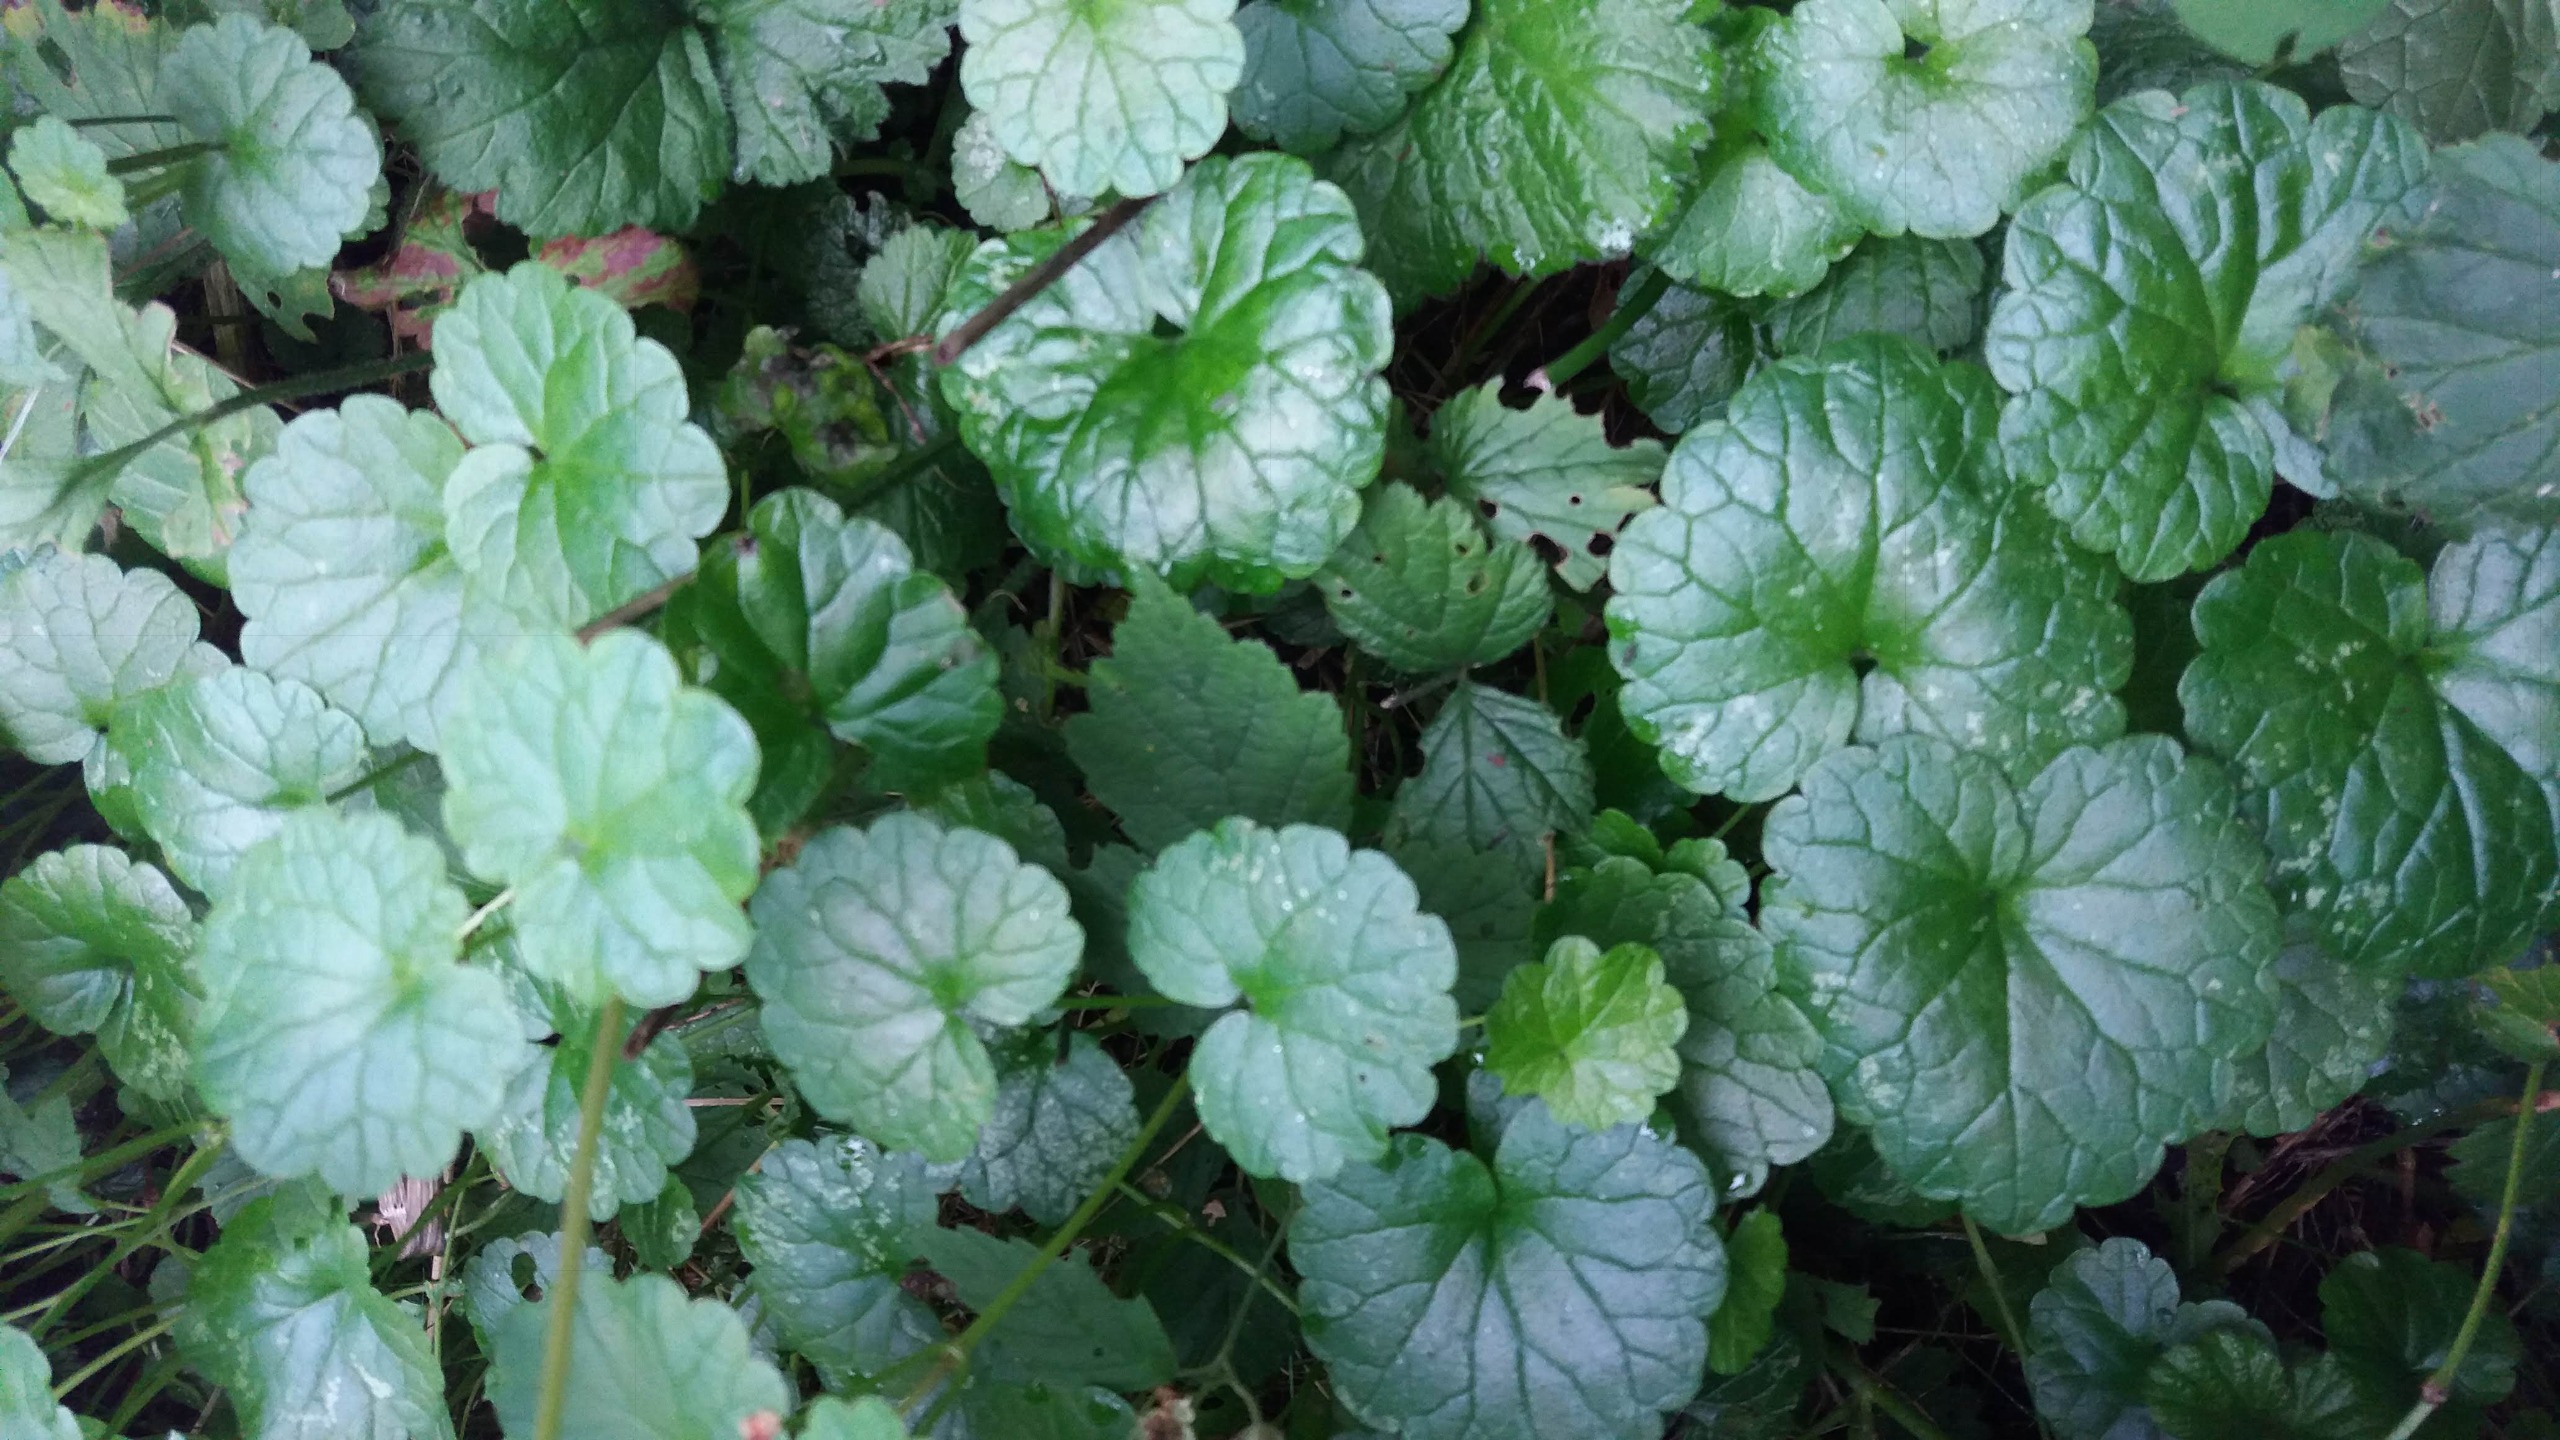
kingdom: Plantae
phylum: Tracheophyta
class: Magnoliopsida
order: Lamiales
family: Lamiaceae
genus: Glechoma
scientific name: Glechoma hederacea
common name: Korsknap
